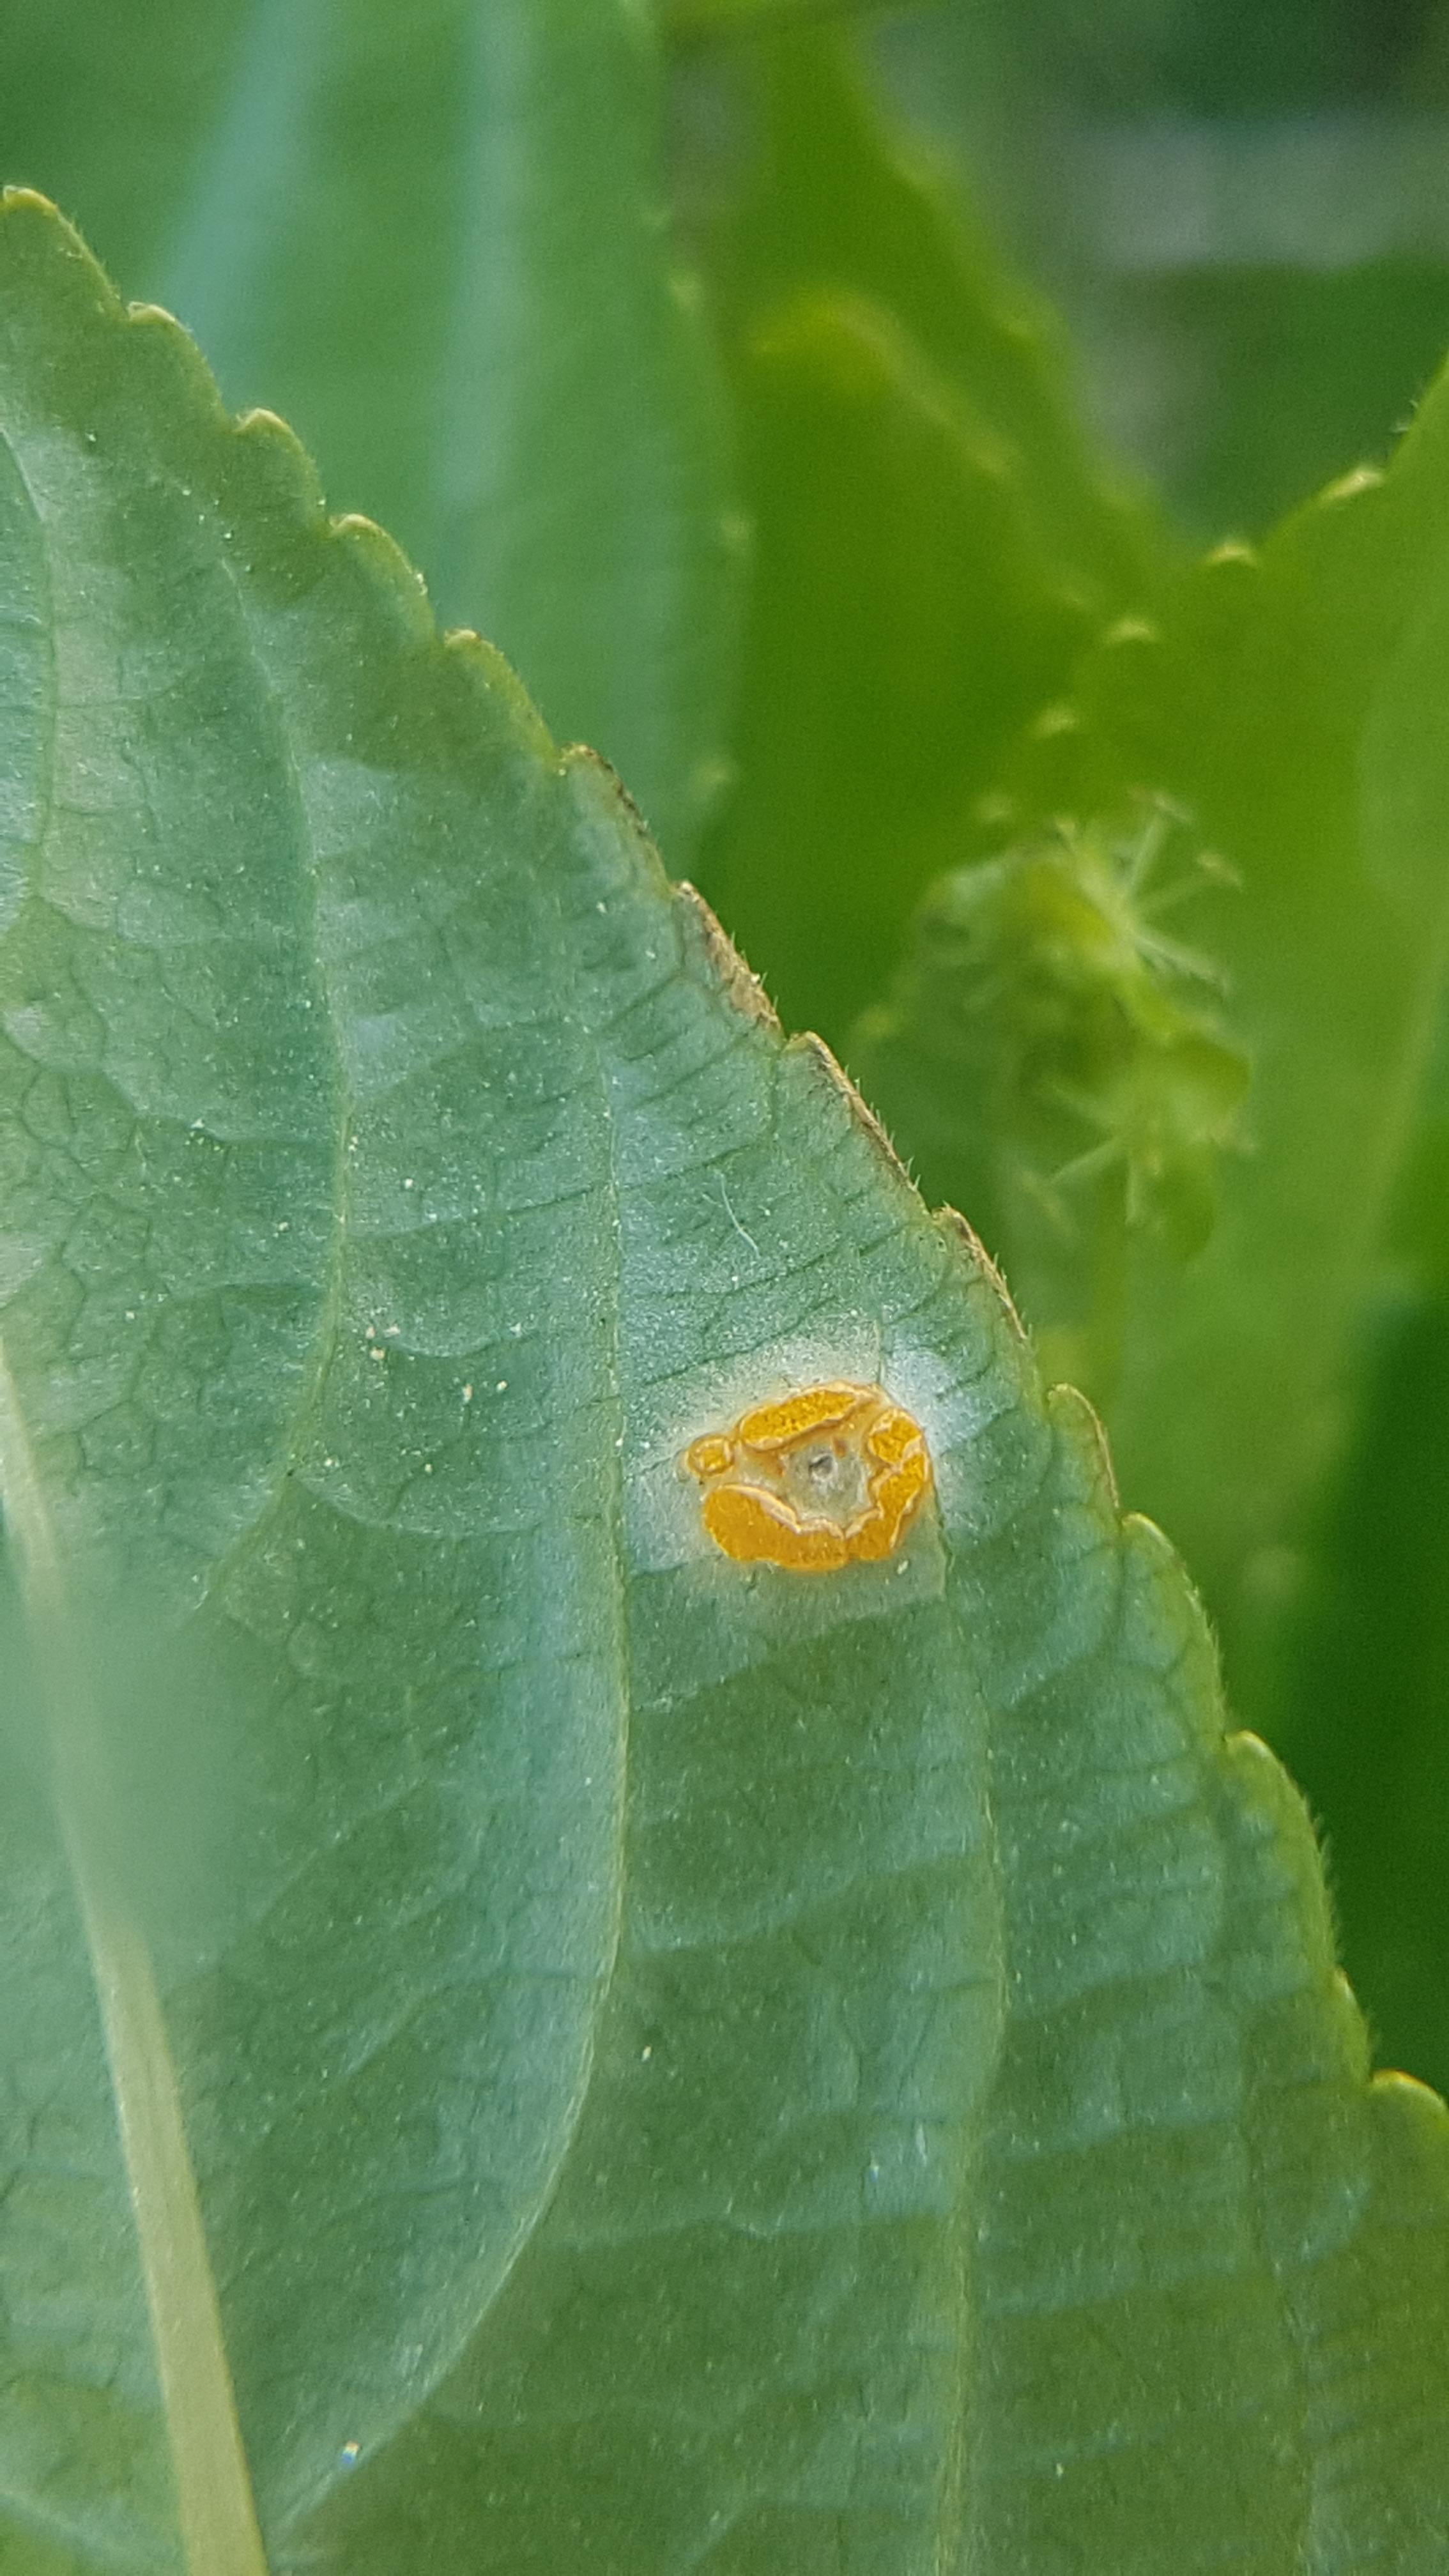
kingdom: Fungi
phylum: Basidiomycota
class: Pucciniomycetes
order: Pucciniales
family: Melampsoraceae
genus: Melampsora
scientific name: Melampsora populnea
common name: poppel-skorperust
